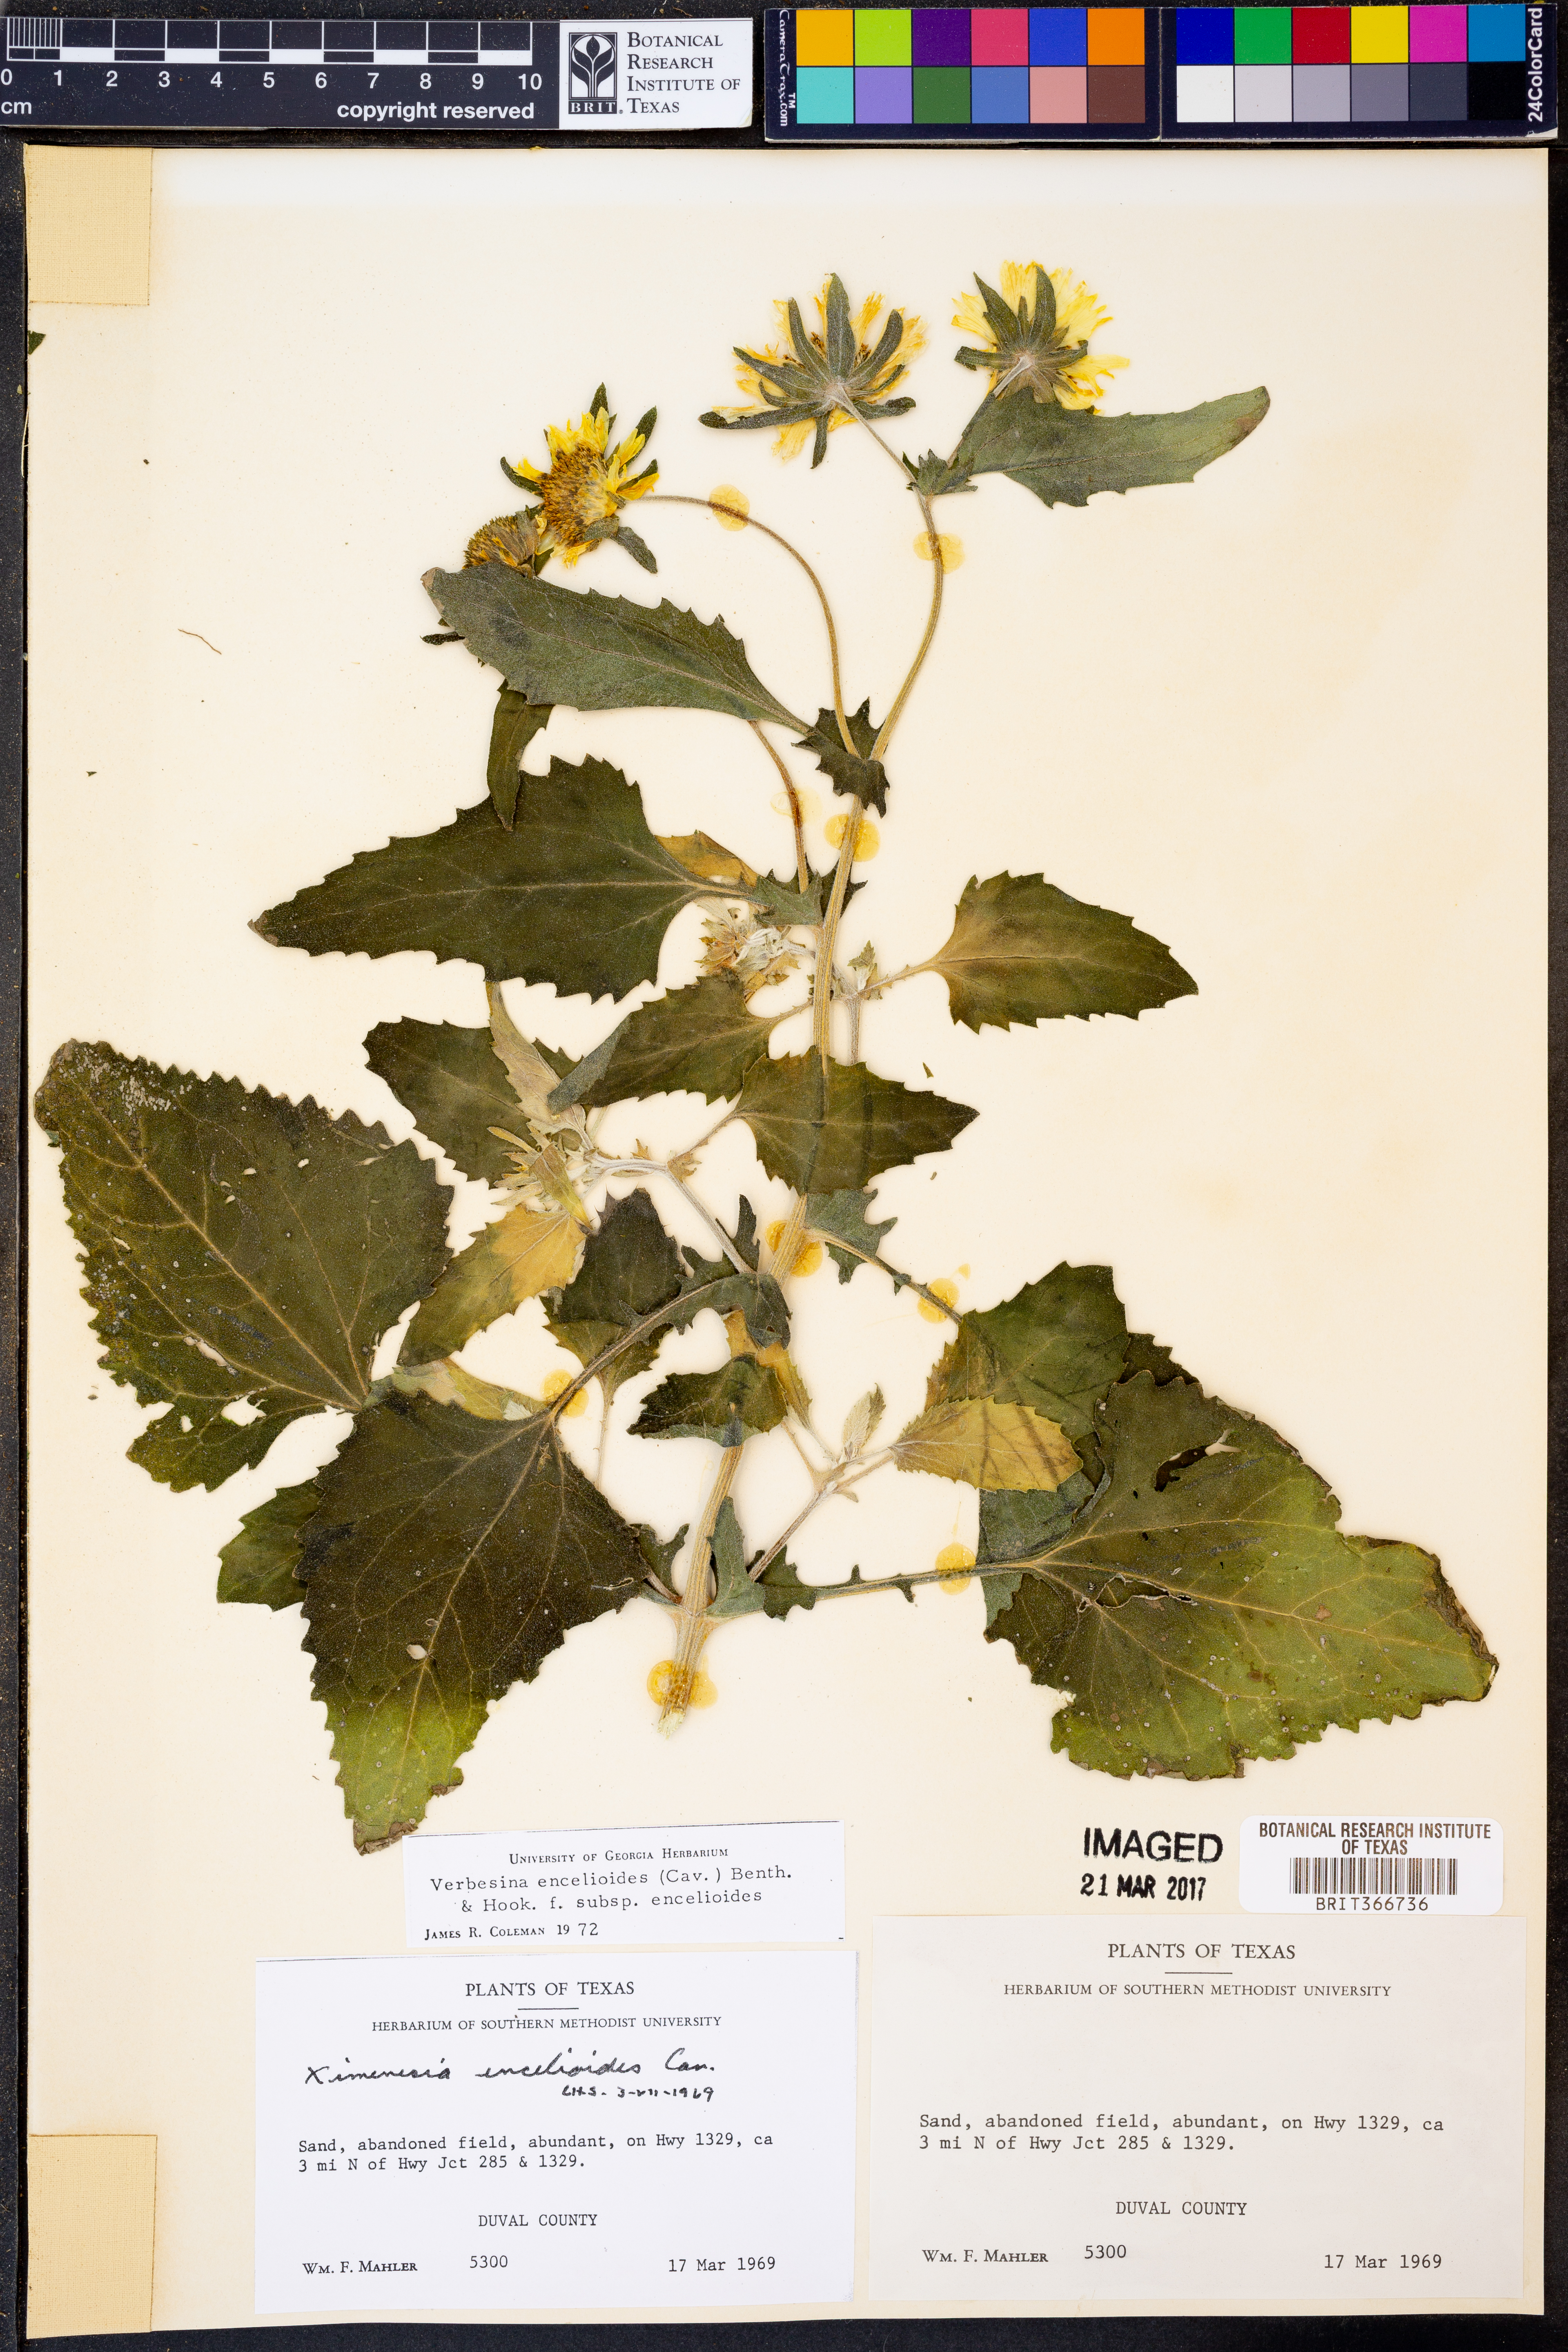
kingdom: Plantae
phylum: Tracheophyta
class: Magnoliopsida
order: Asterales
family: Asteraceae
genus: Verbesina
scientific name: Verbesina encelioides
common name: Golden crownbeard
